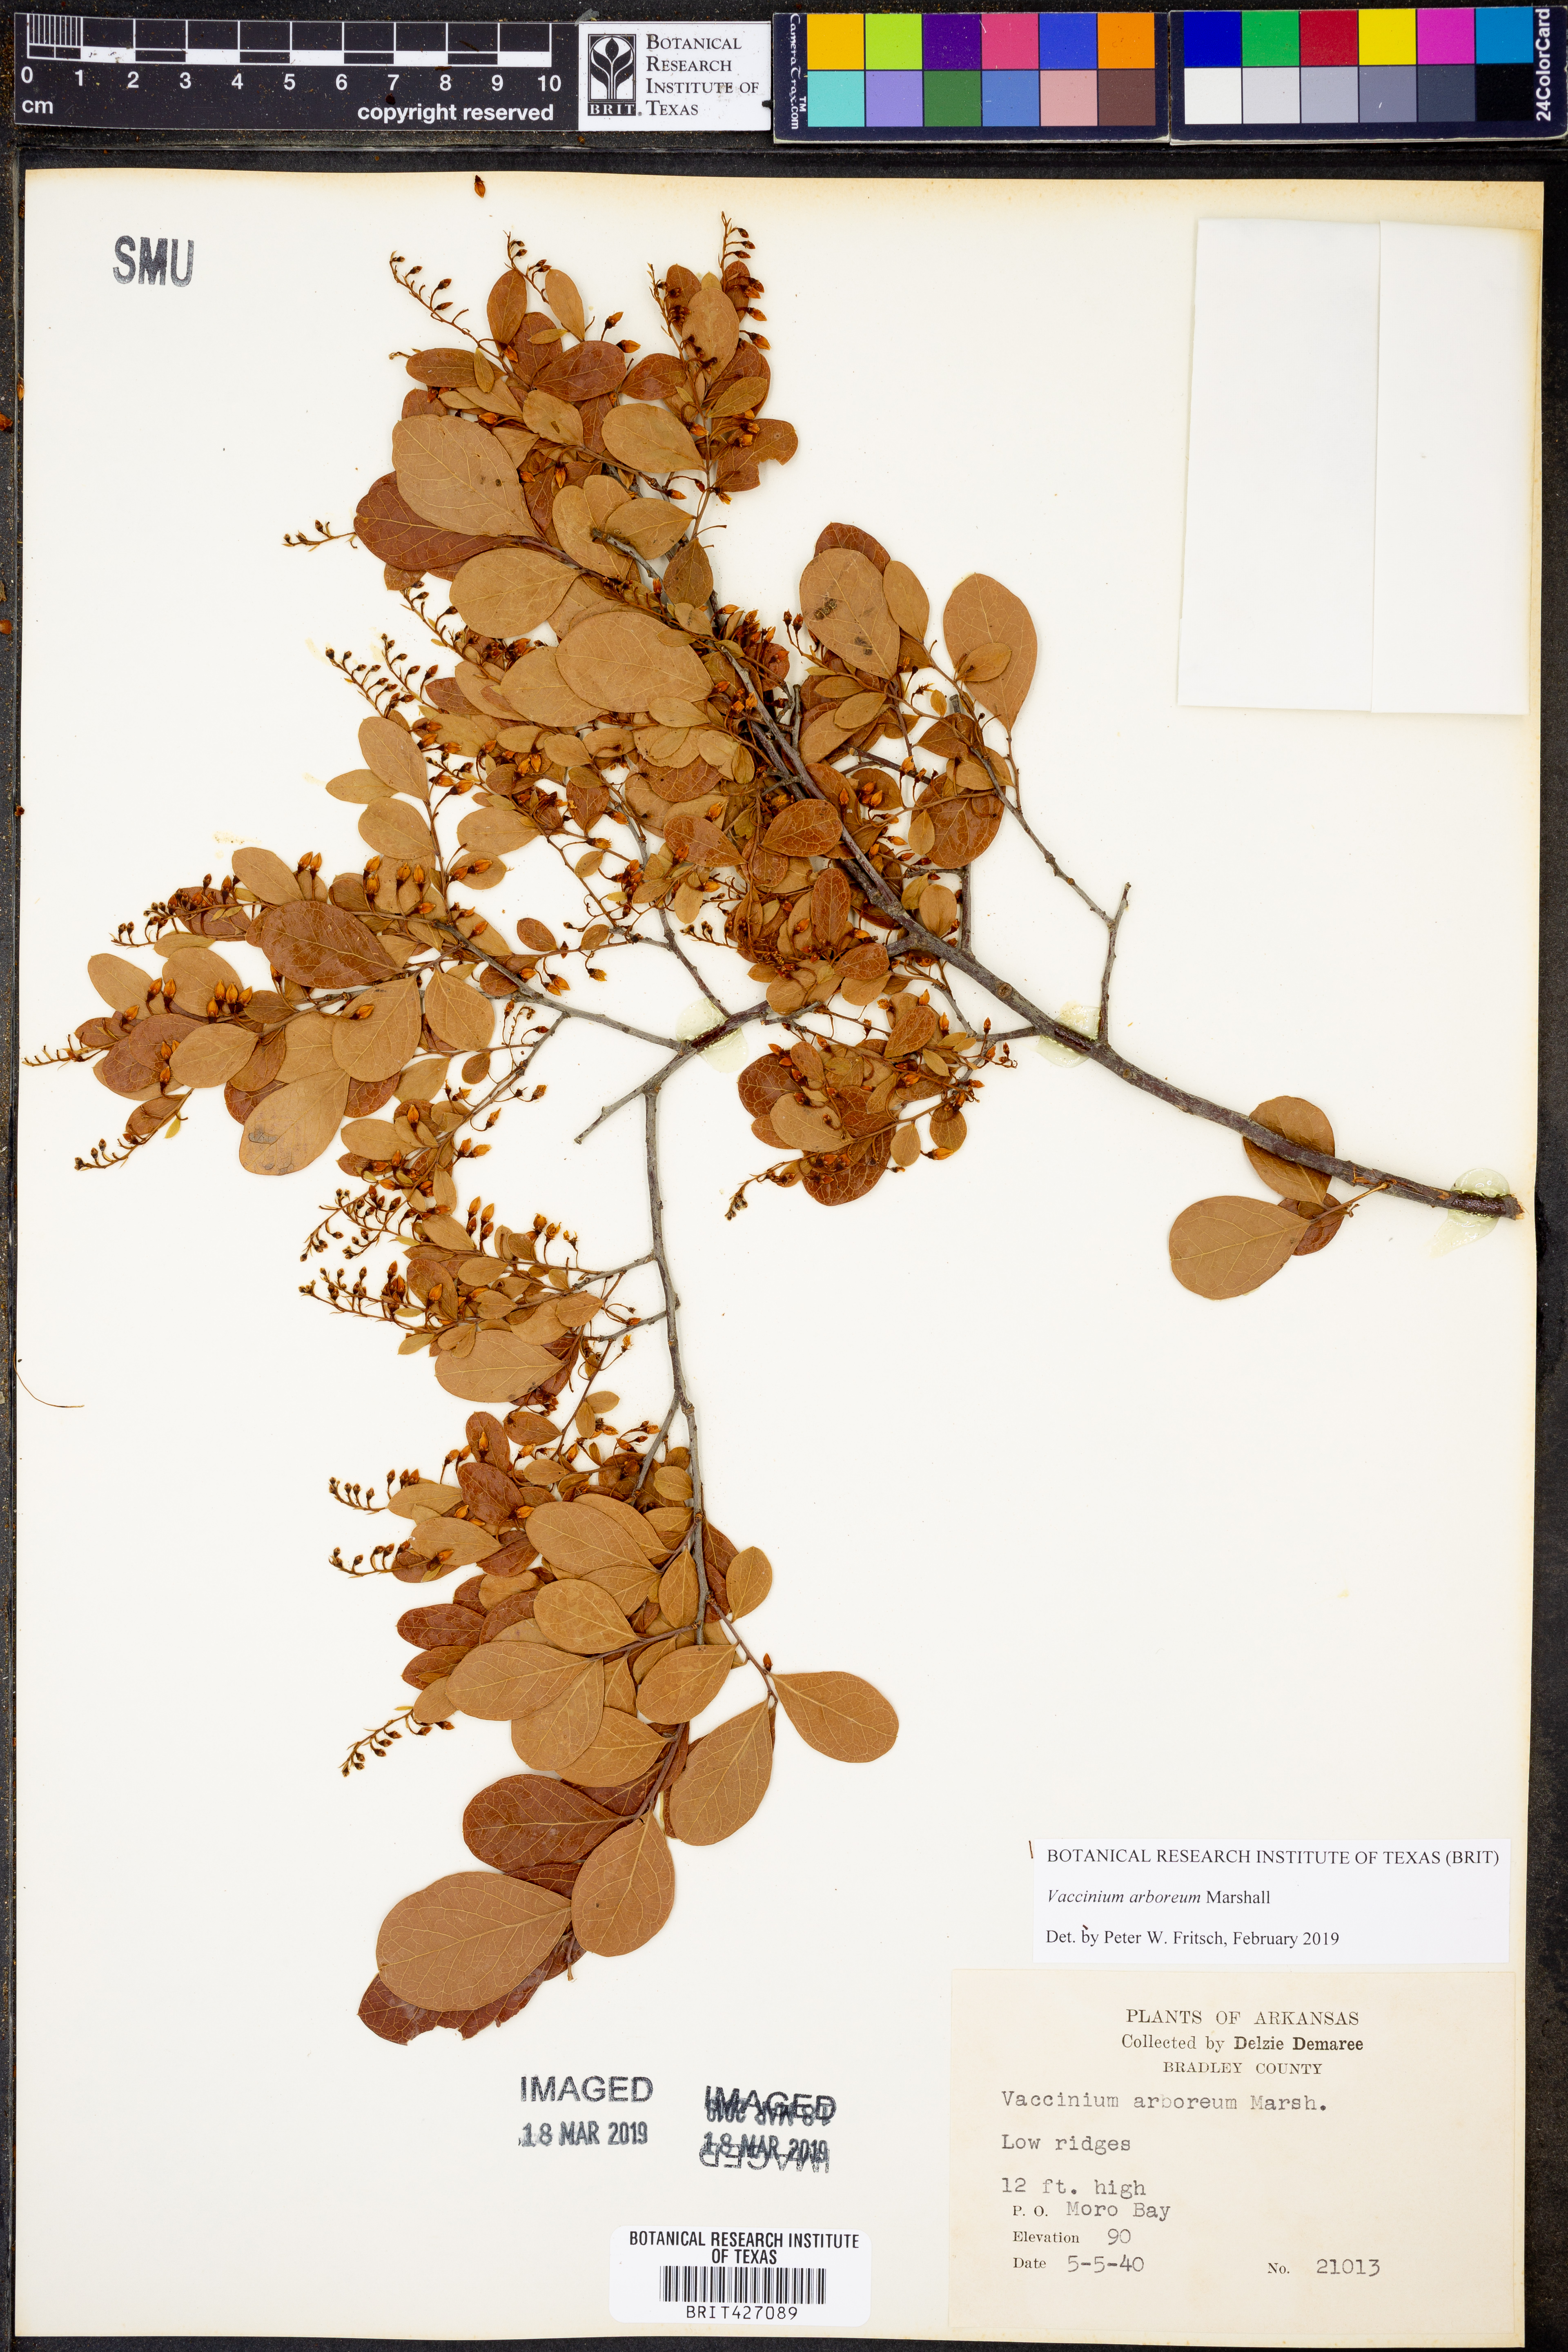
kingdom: Plantae
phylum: Tracheophyta
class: Magnoliopsida
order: Ericales
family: Ericaceae
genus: Vaccinium
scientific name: Vaccinium arboreum
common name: Farkleberry
